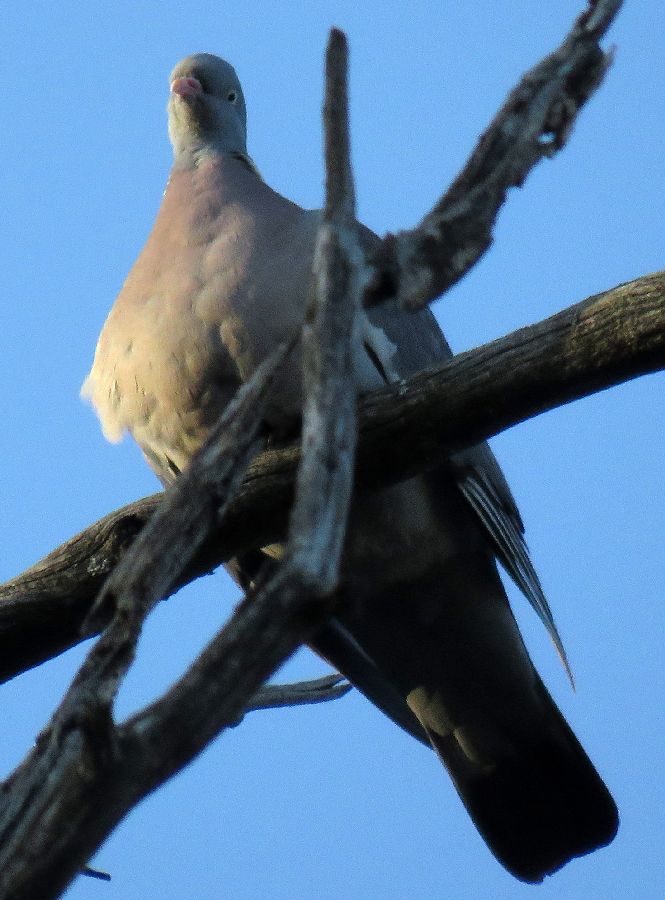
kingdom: Animalia
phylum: Chordata
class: Aves
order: Columbiformes
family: Columbidae
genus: Columba
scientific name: Columba palumbus
